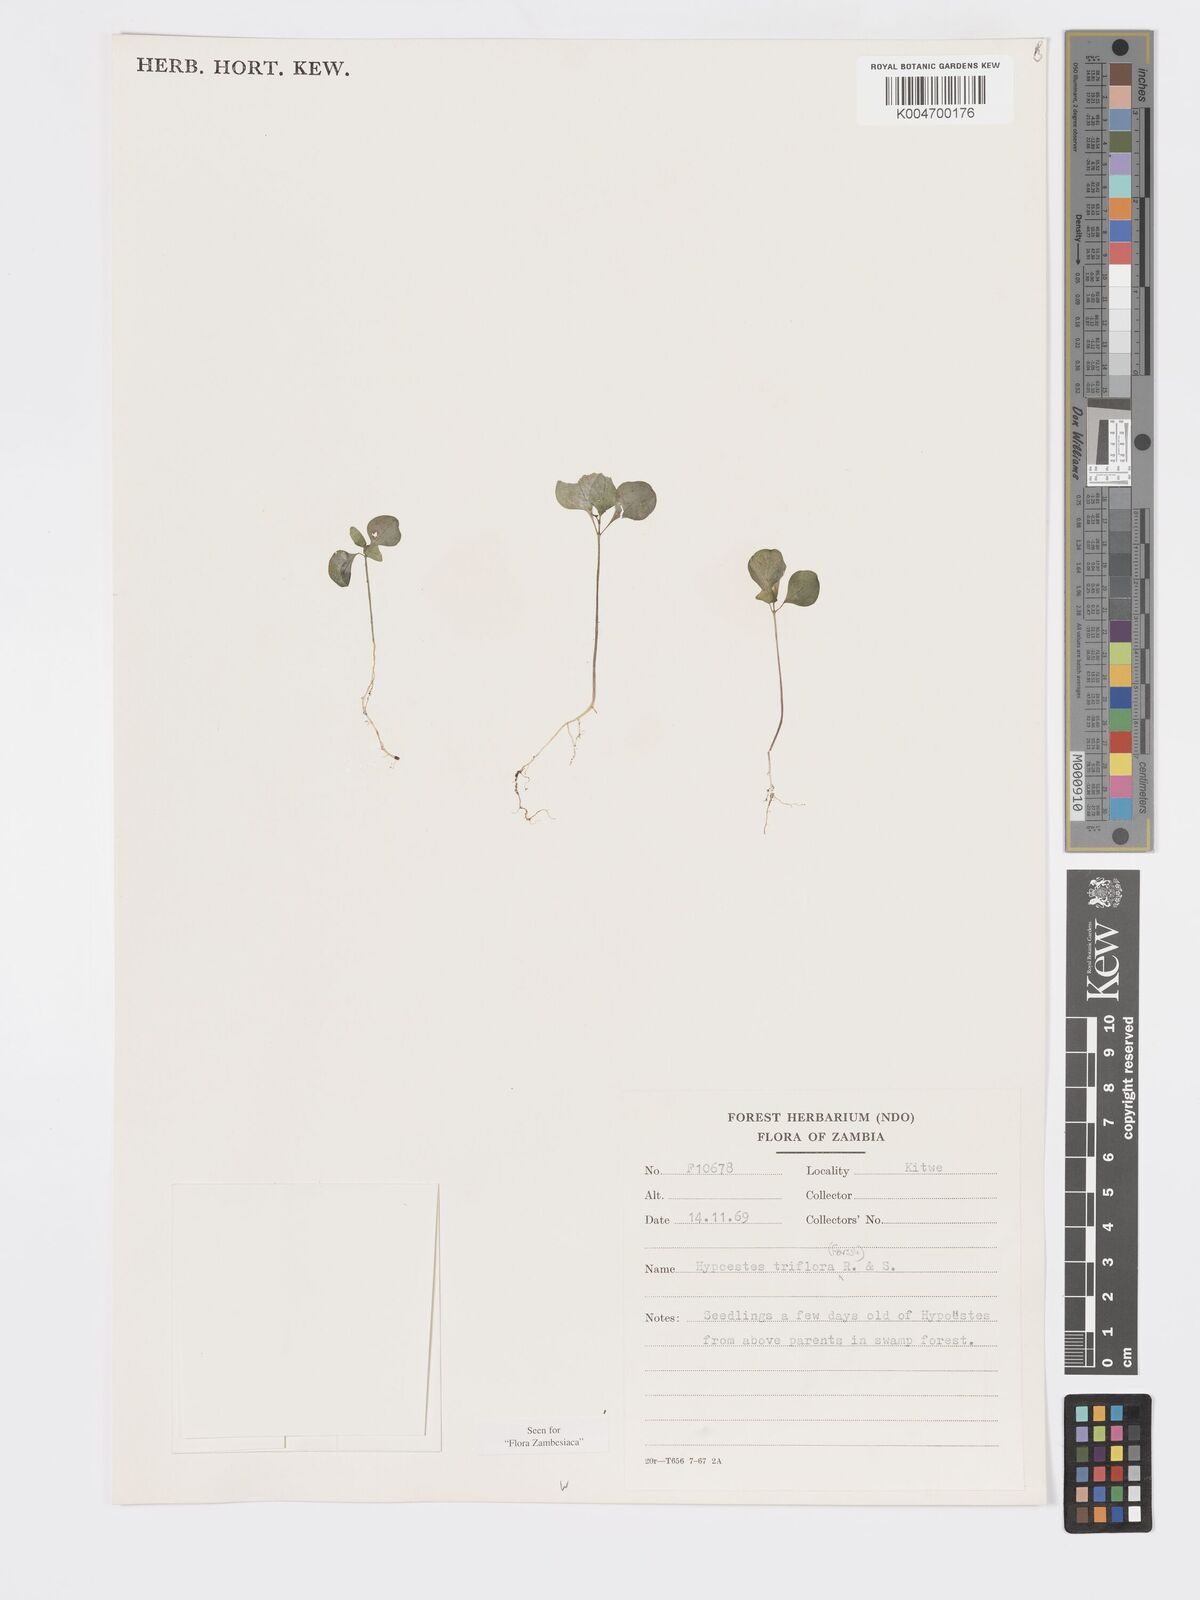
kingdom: Plantae
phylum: Tracheophyta
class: Magnoliopsida
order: Lamiales
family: Acanthaceae
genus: Hypoestes
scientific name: Hypoestes triflora
